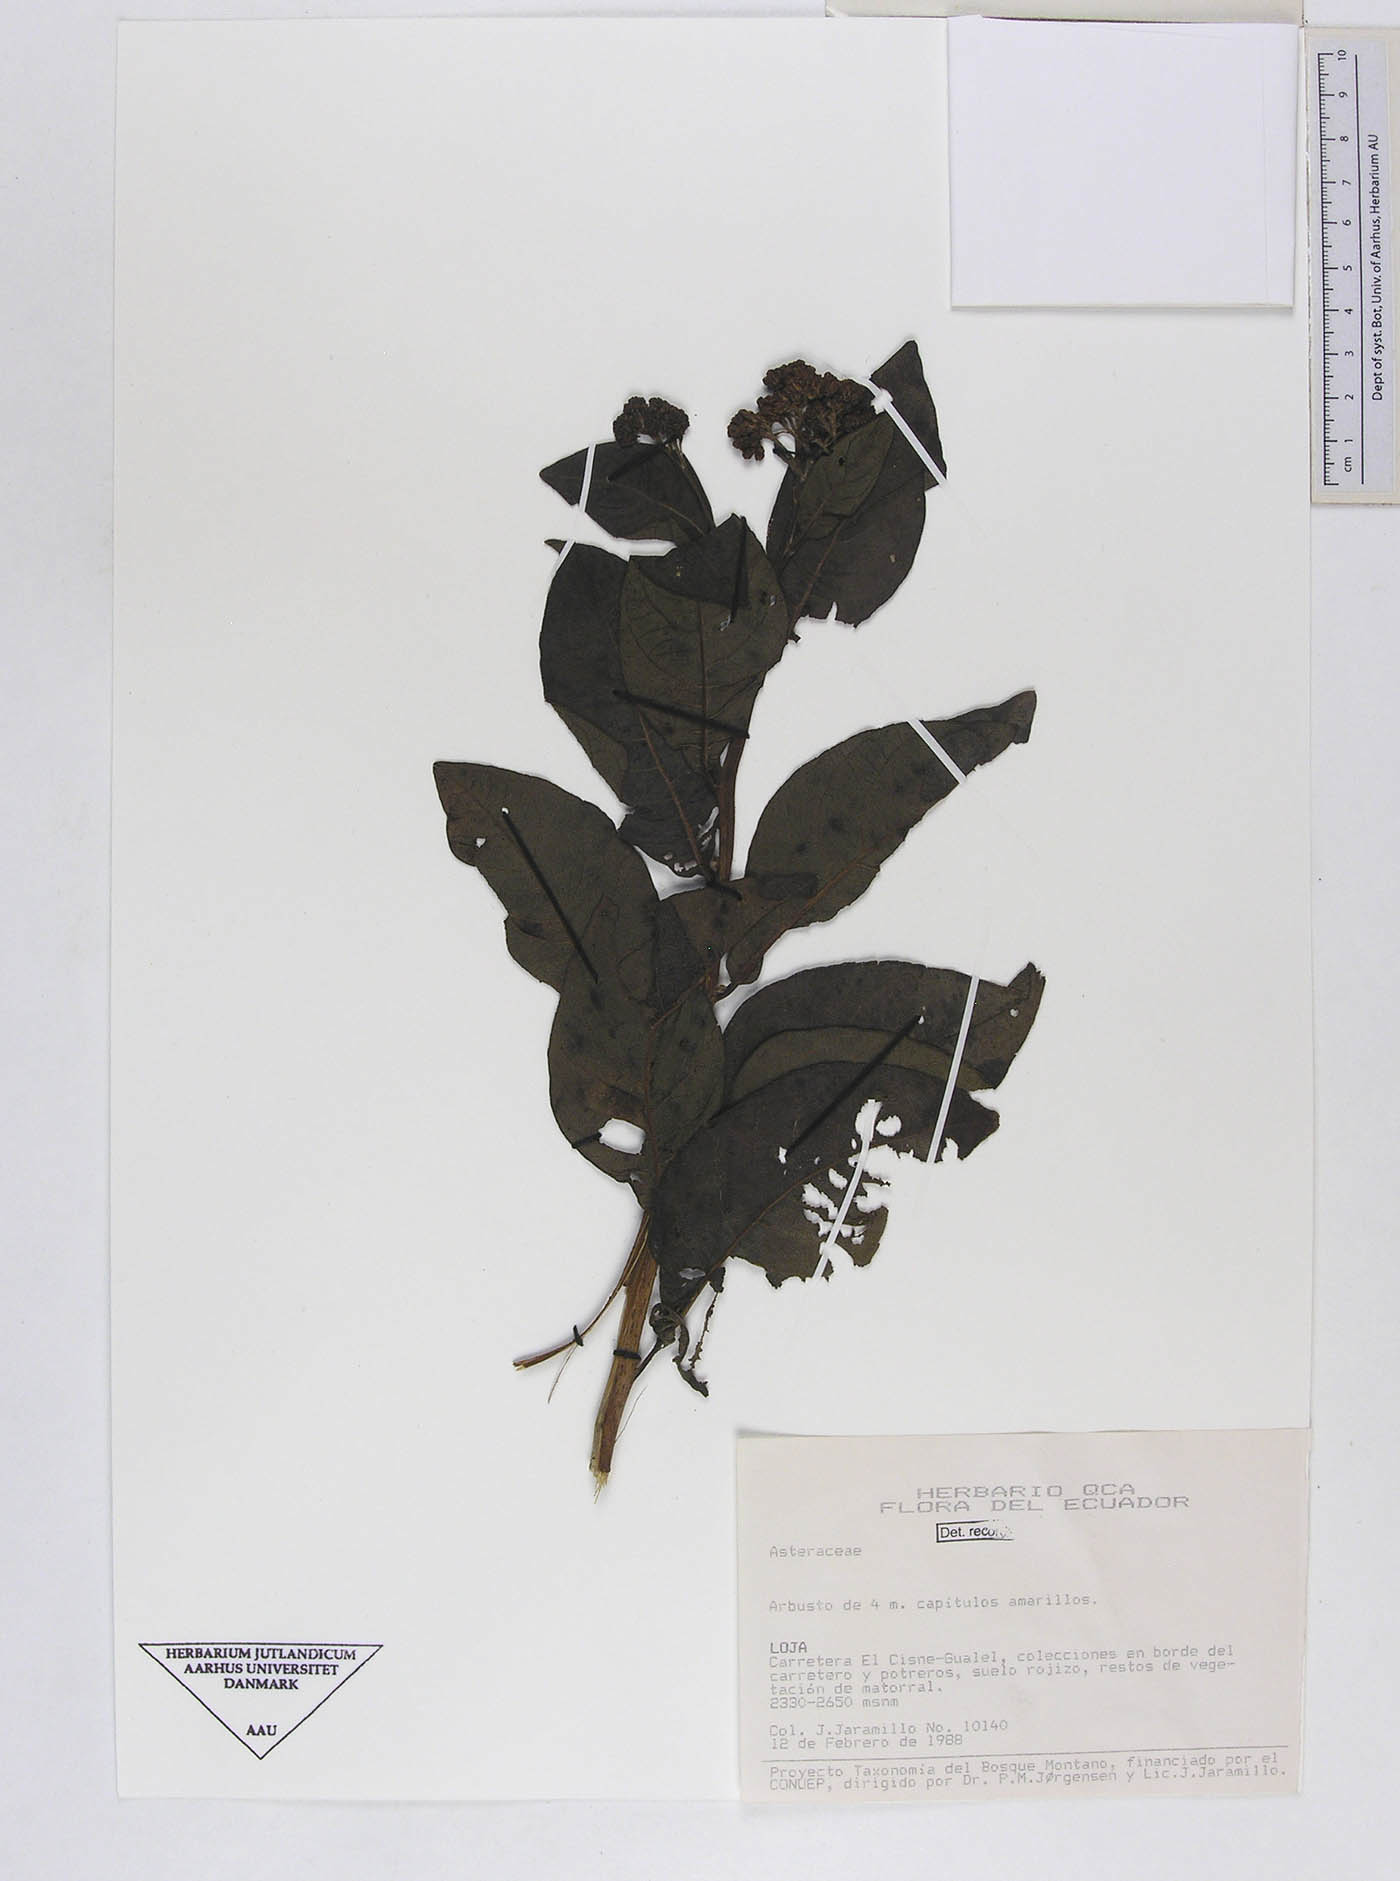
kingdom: Plantae
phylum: Tracheophyta
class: Magnoliopsida
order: Asterales
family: Asteraceae
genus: Verbesina
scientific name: Verbesina
